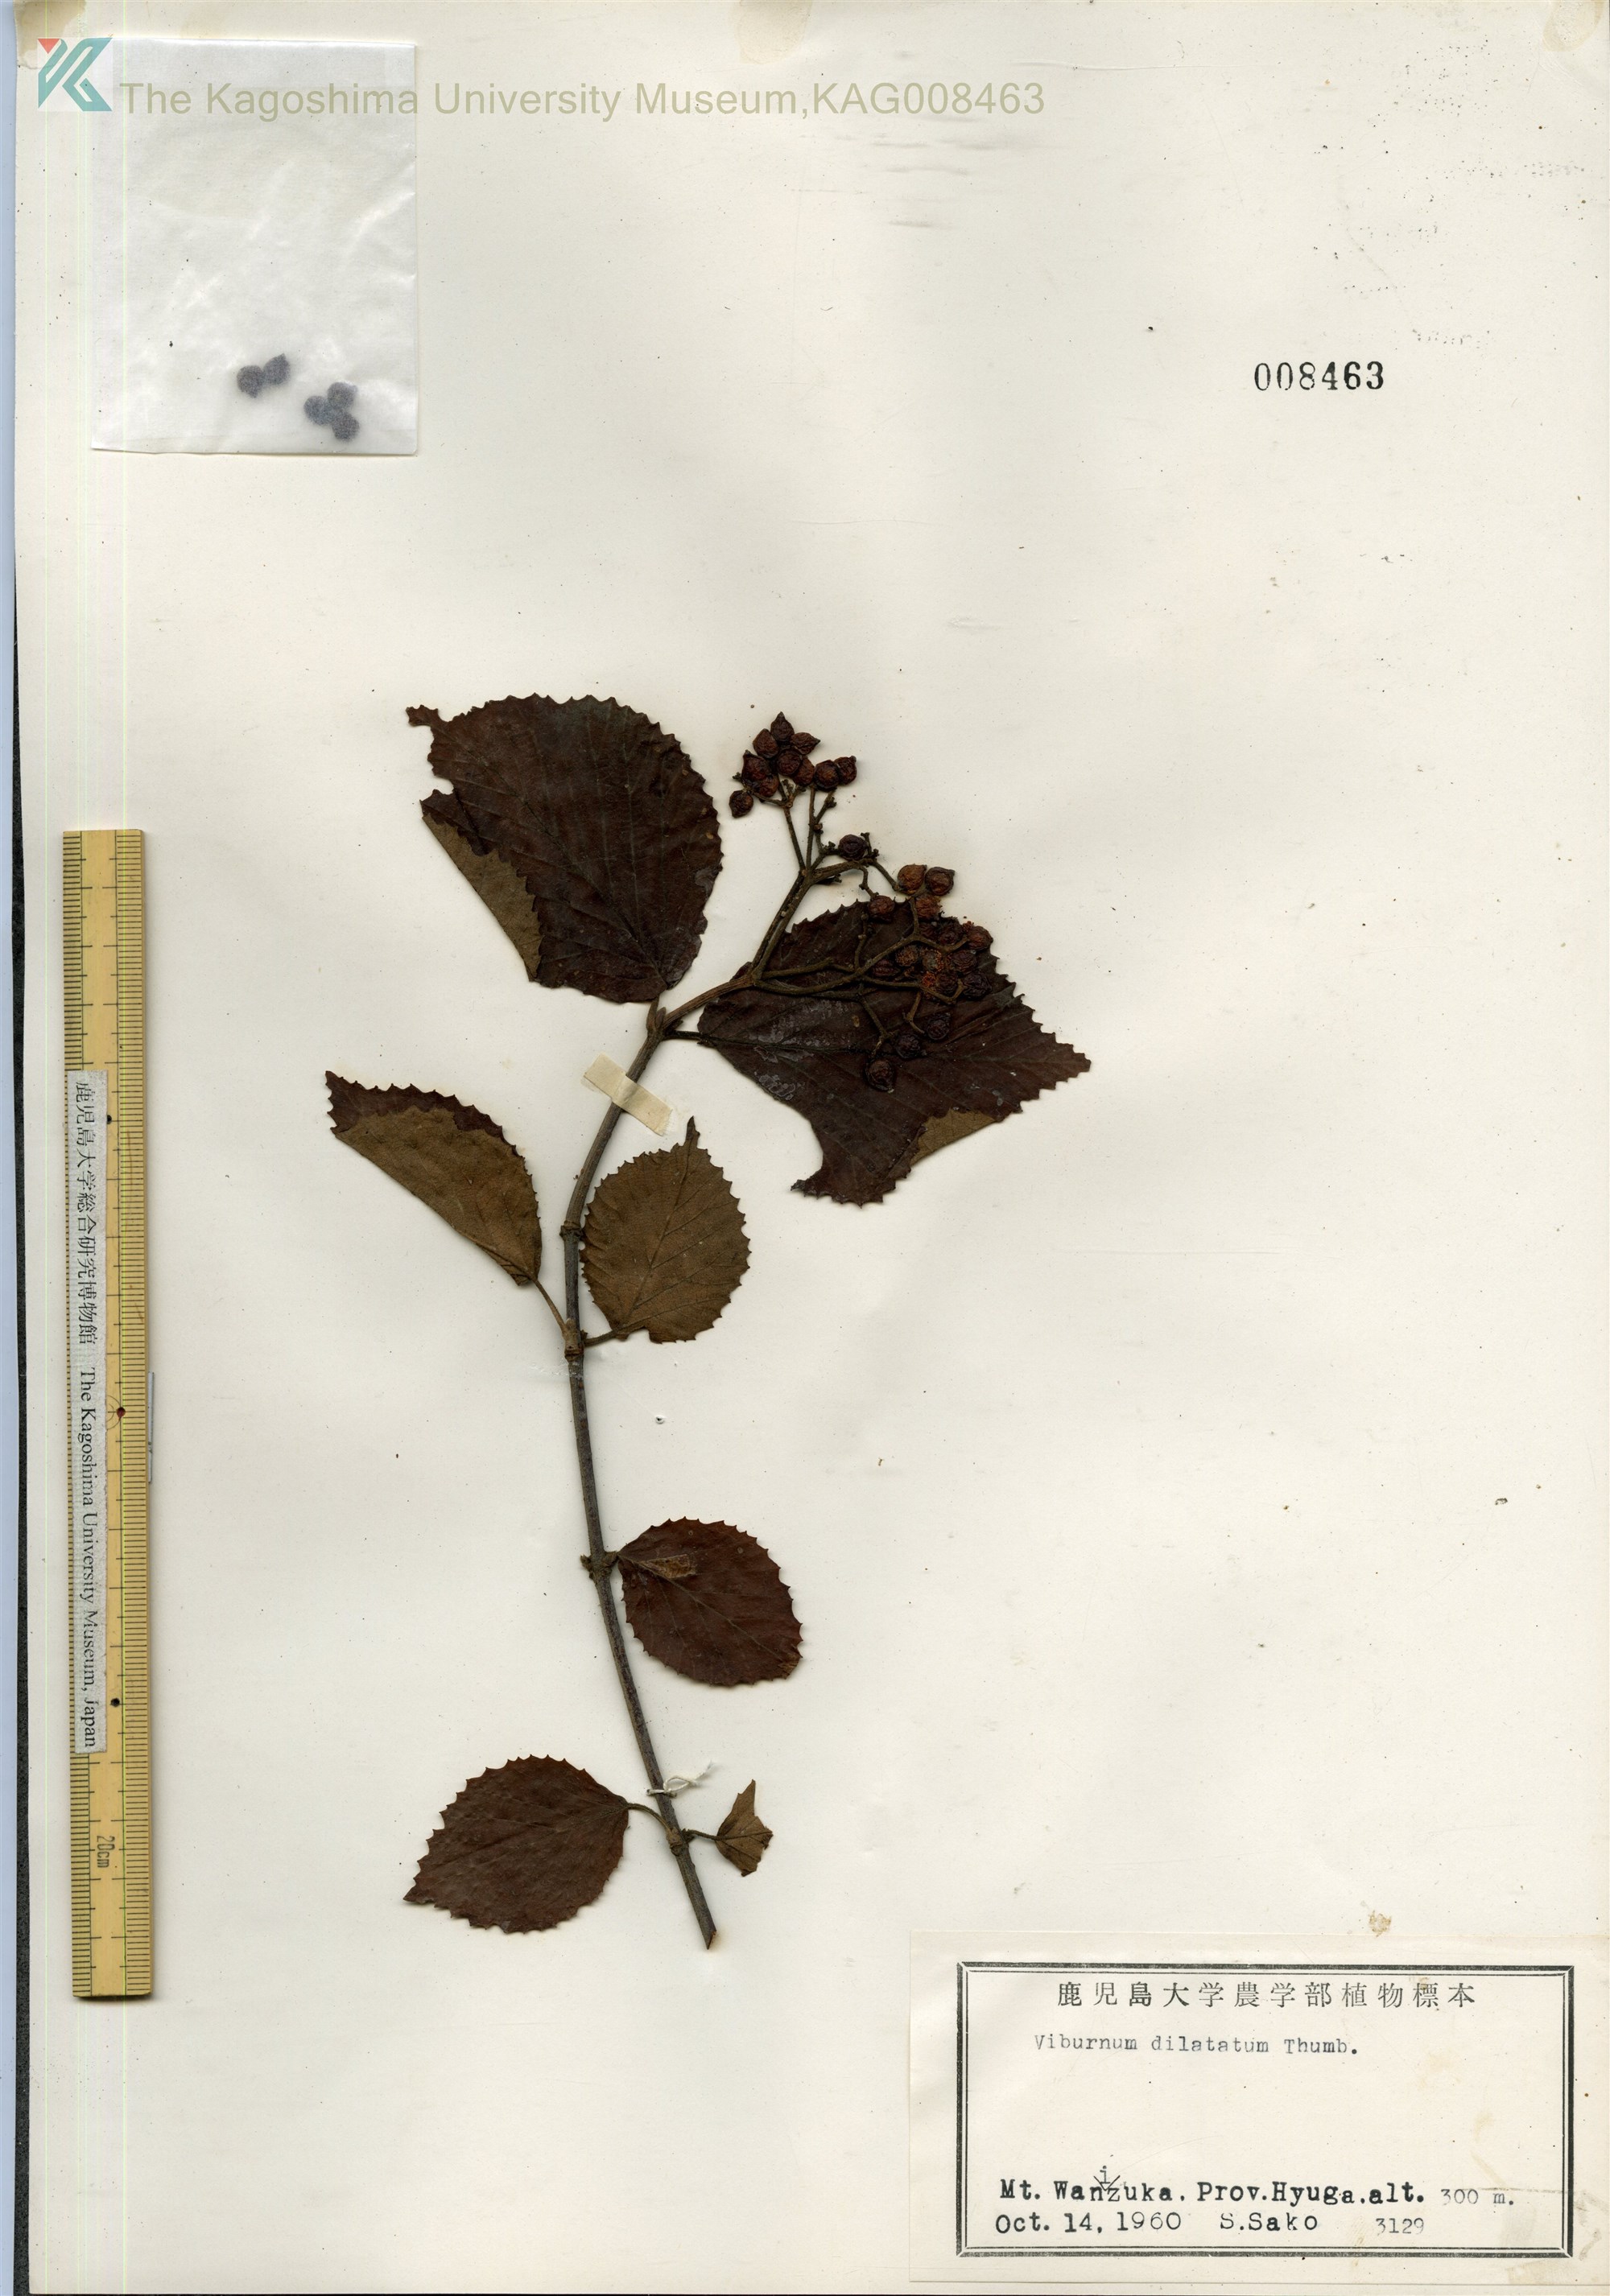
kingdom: Plantae
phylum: Tracheophyta
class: Magnoliopsida
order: Dipsacales
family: Viburnaceae
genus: Viburnum
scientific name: Viburnum dilatatum
